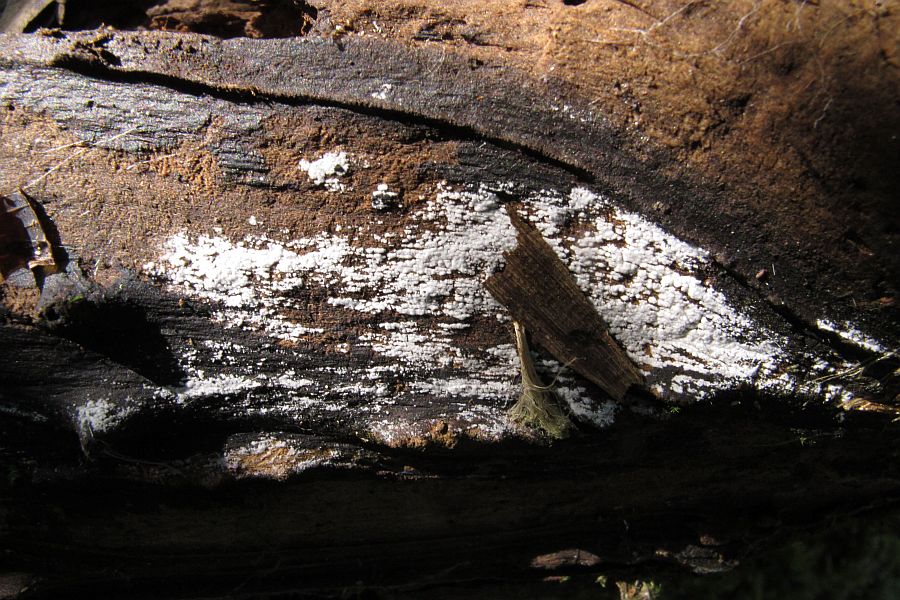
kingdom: Fungi
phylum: Basidiomycota
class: Agaricomycetes
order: Trechisporales
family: Hydnodontaceae
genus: Subulicystidium
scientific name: Subulicystidium longisporum
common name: almindelig pigtrådshinde
